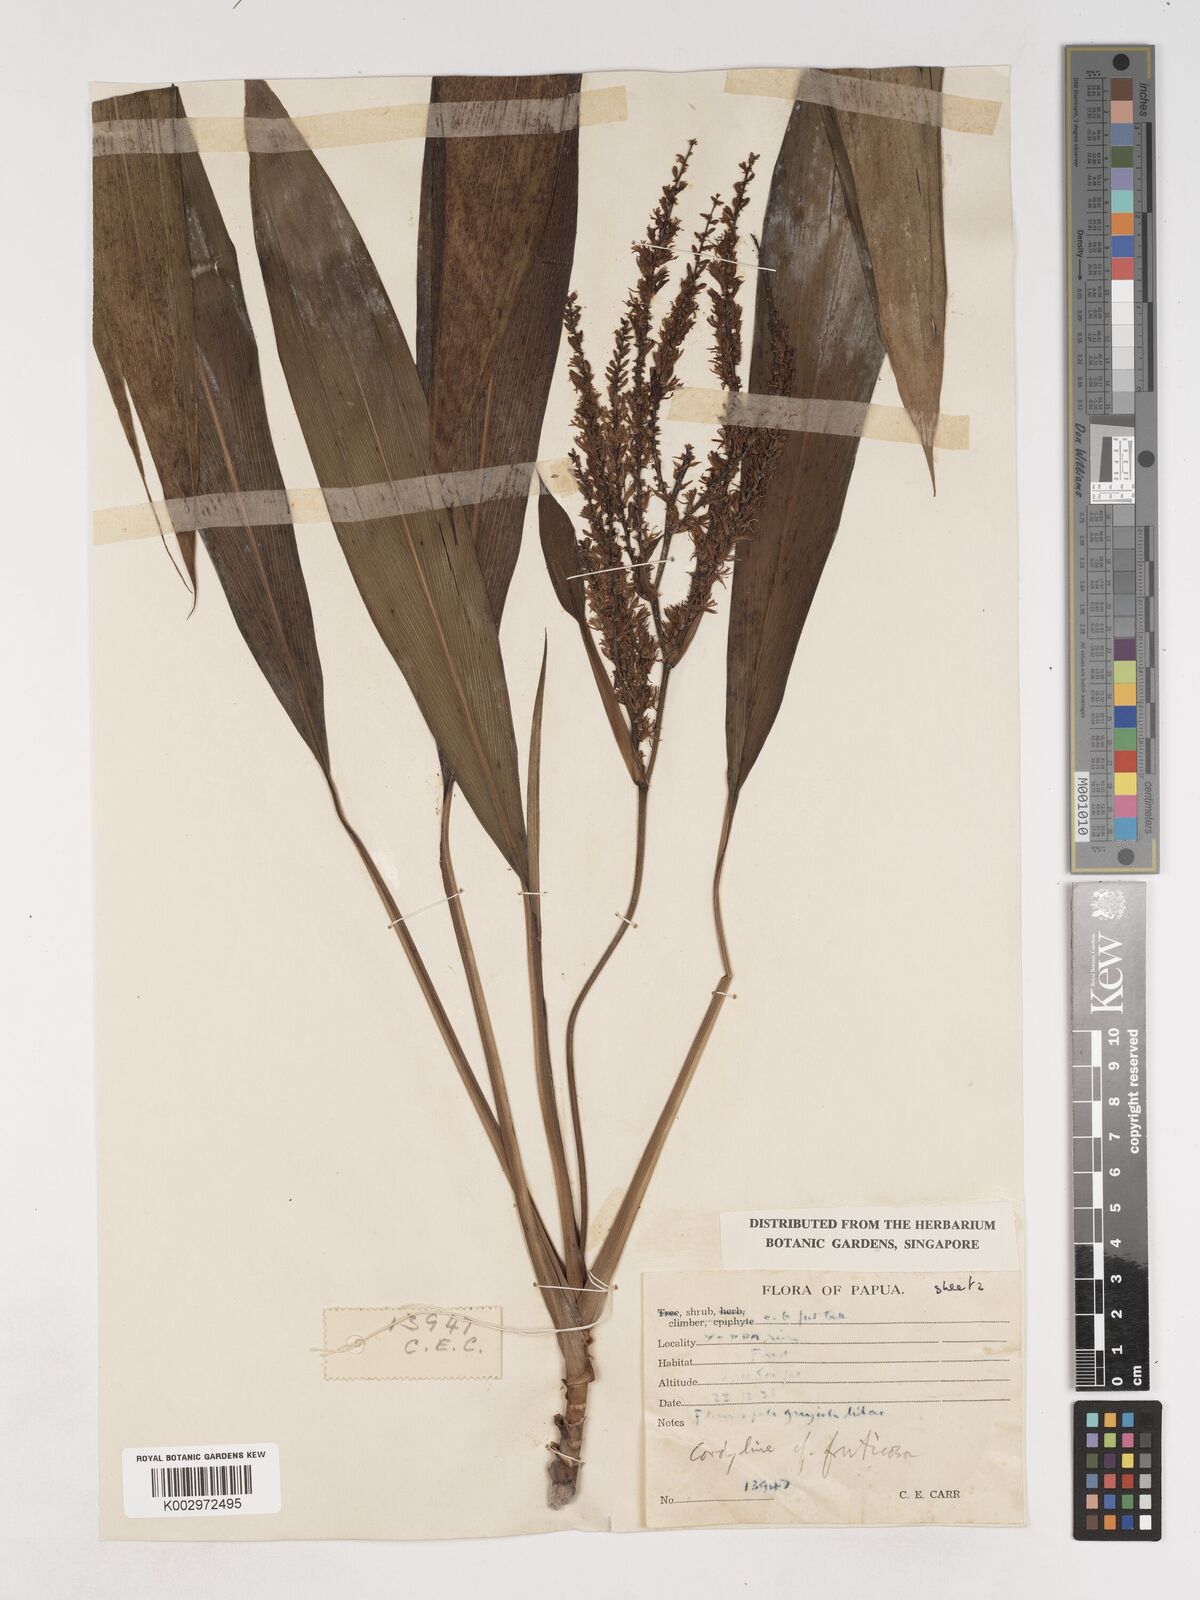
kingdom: Plantae
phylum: Tracheophyta
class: Liliopsida
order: Asparagales
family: Asparagaceae
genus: Cordyline
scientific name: Cordyline fruticosa
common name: Good-luck-plant
